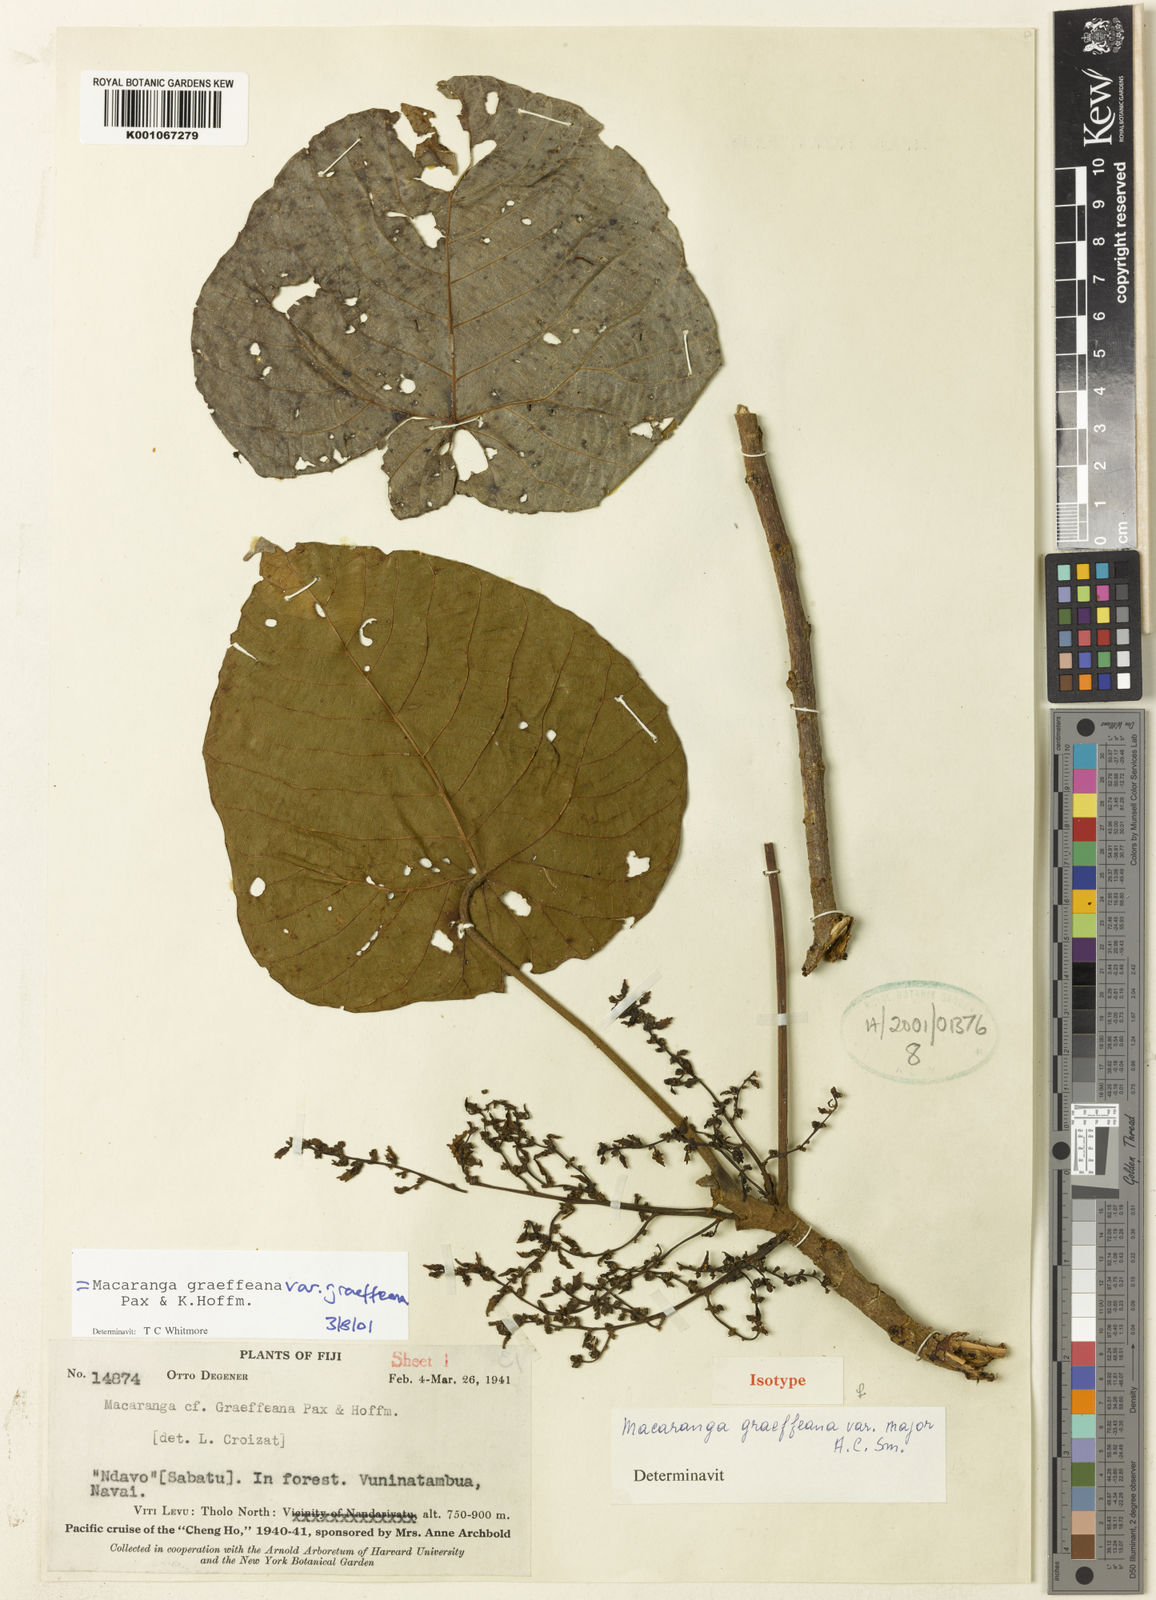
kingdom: Plantae
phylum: Tracheophyta
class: Magnoliopsida
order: Malpighiales
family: Euphorbiaceae
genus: Macaranga
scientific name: Macaranga graeffeana
